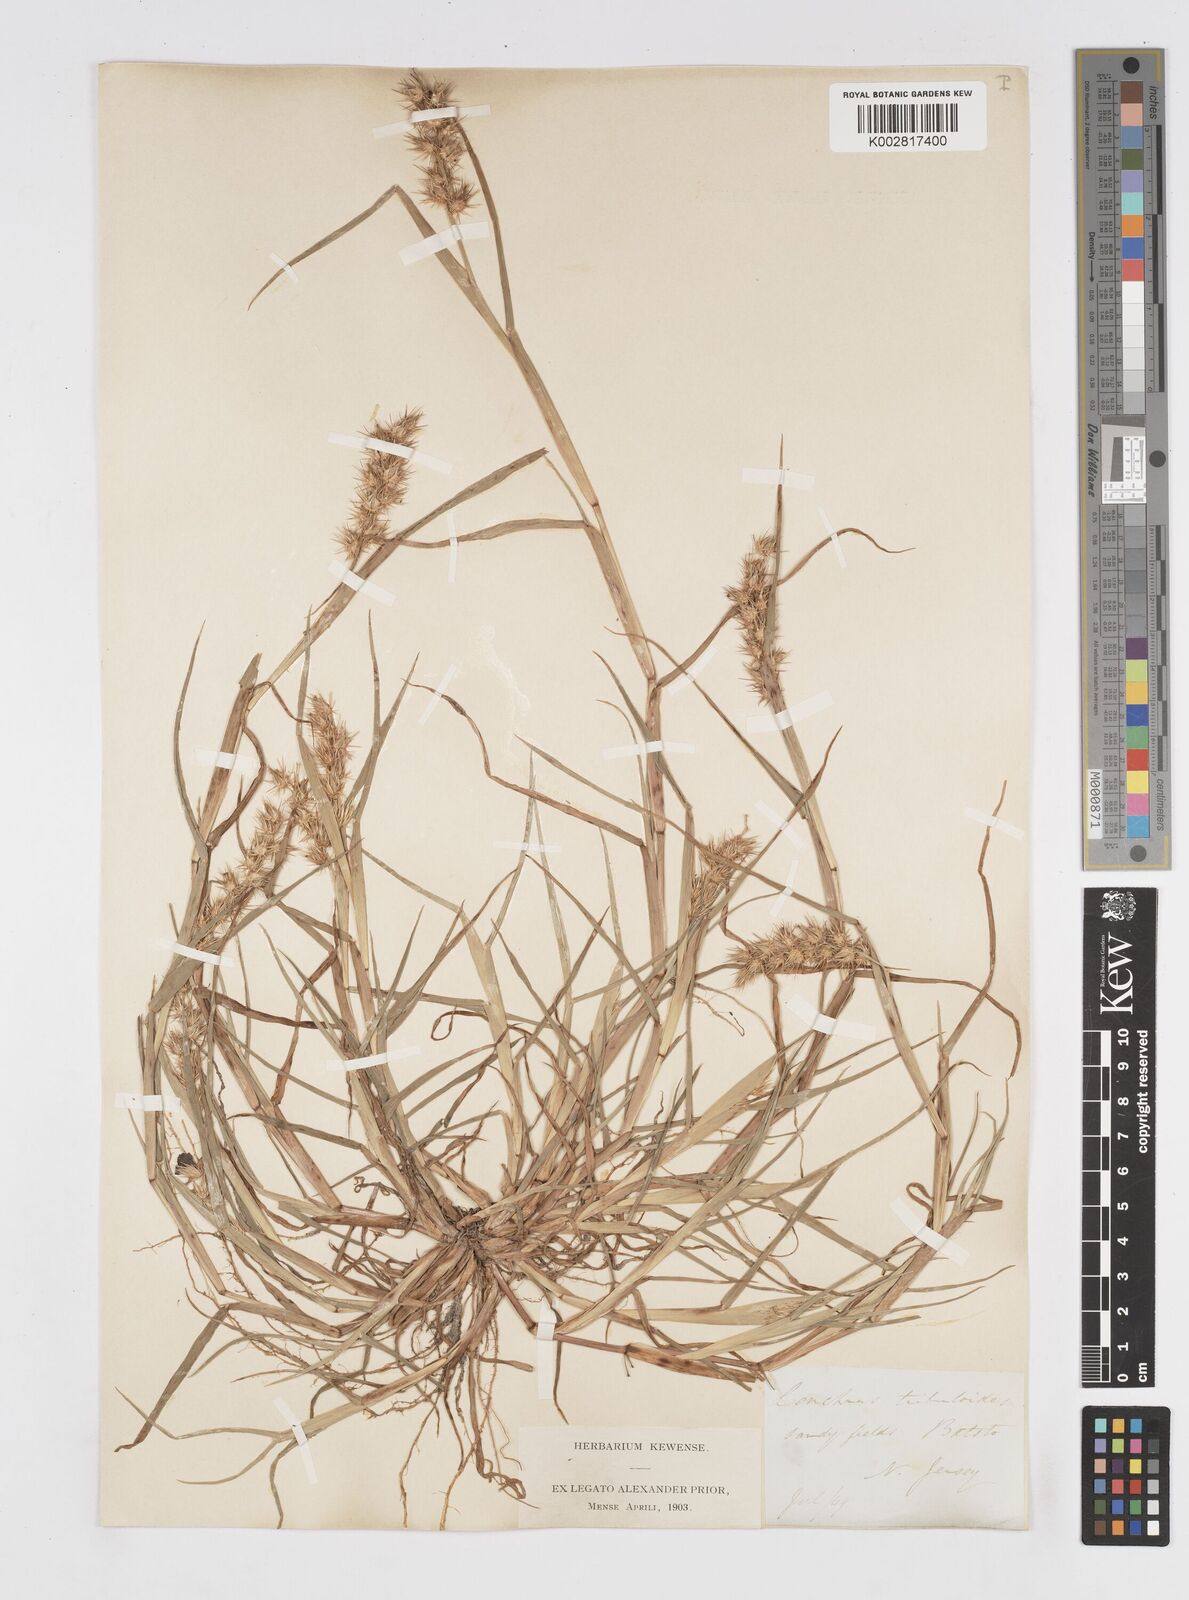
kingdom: Plantae
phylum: Tracheophyta
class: Liliopsida
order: Poales
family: Poaceae
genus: Cenchrus
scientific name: Cenchrus longispinus
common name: Mat sandbur
